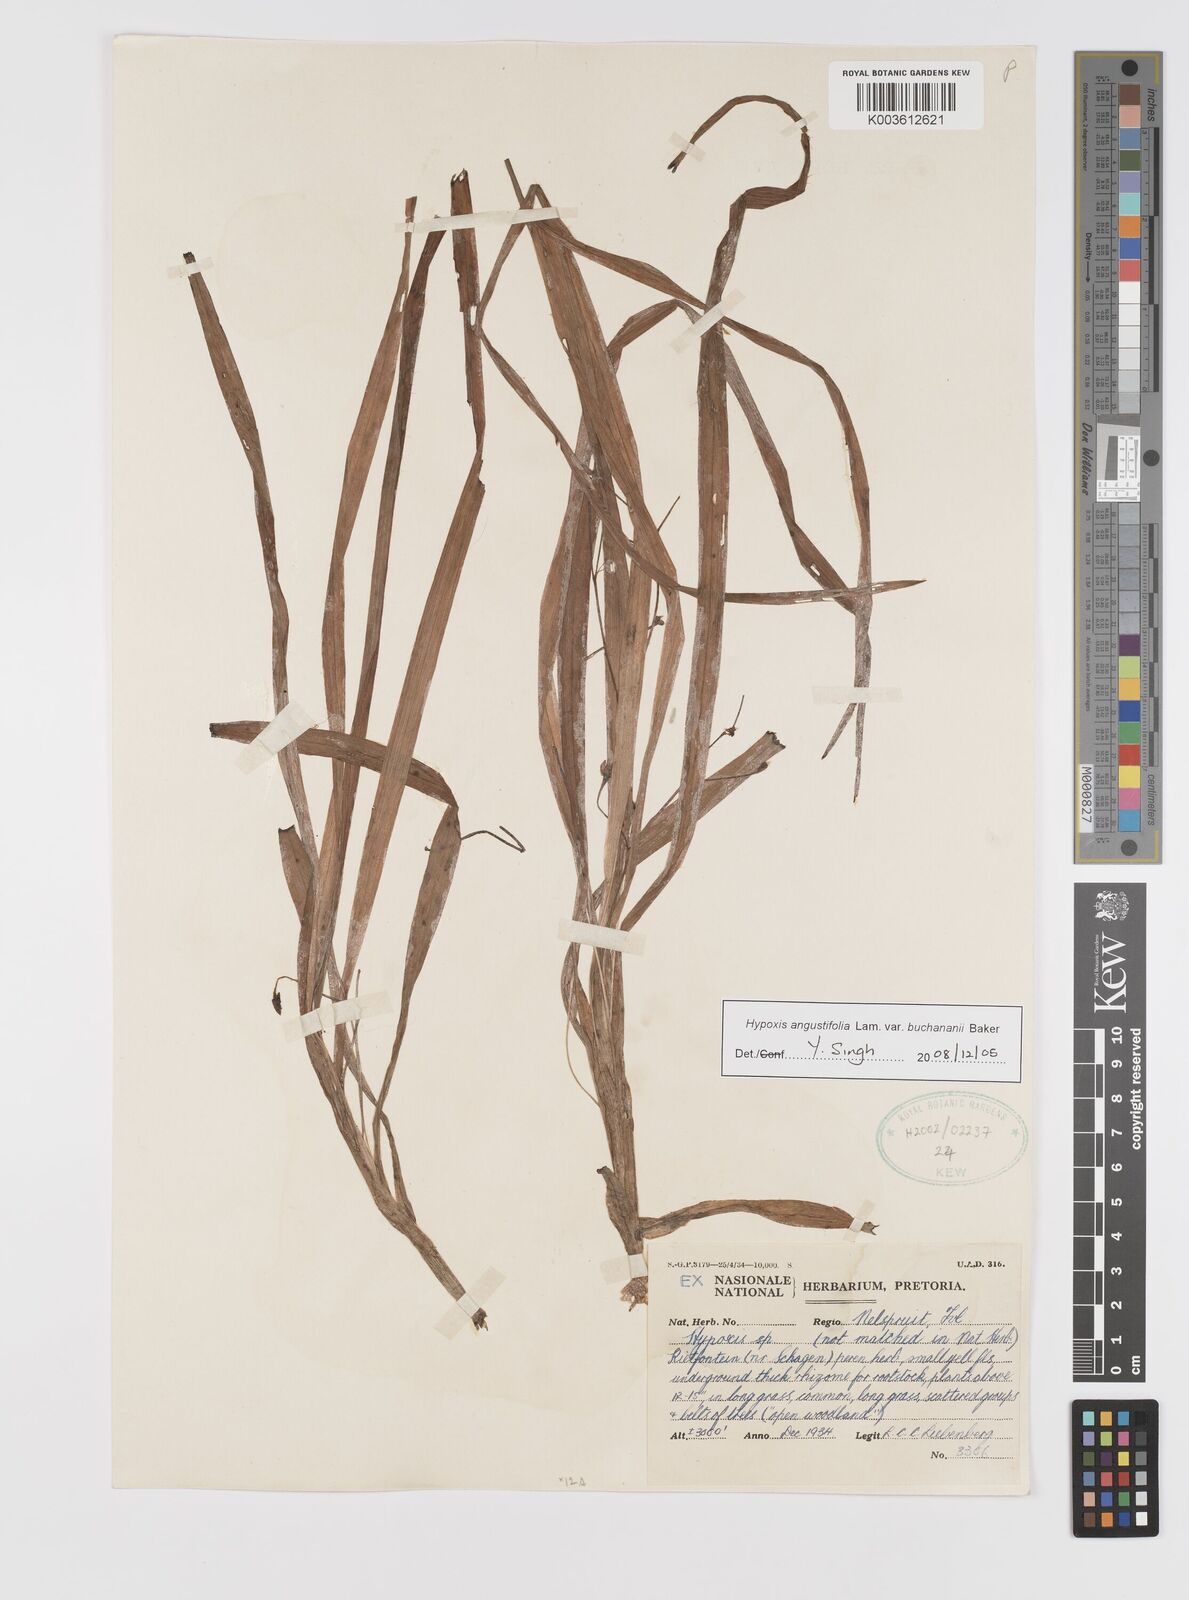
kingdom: Plantae
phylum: Tracheophyta
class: Liliopsida
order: Asparagales
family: Hypoxidaceae
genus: Hypoxis
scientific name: Hypoxis angustifolia
